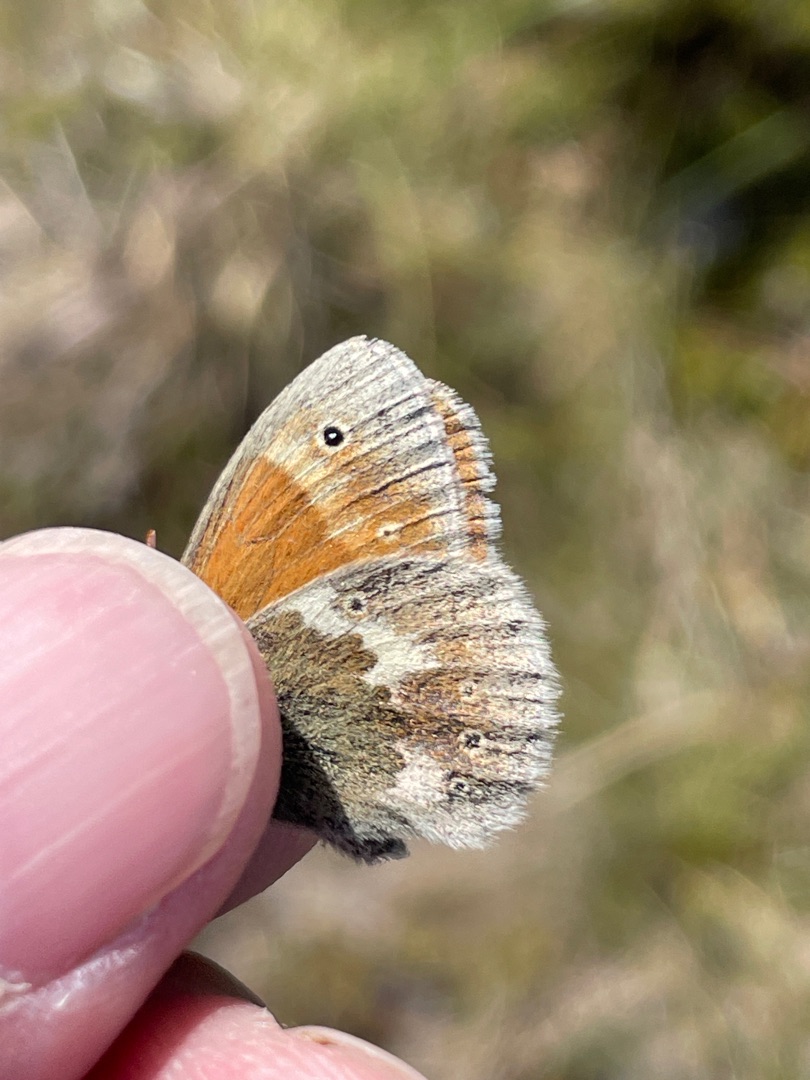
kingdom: Animalia
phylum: Arthropoda
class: Insecta
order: Lepidoptera
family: Nymphalidae
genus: Coenonympha
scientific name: Coenonympha tullia
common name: Moserandøje
